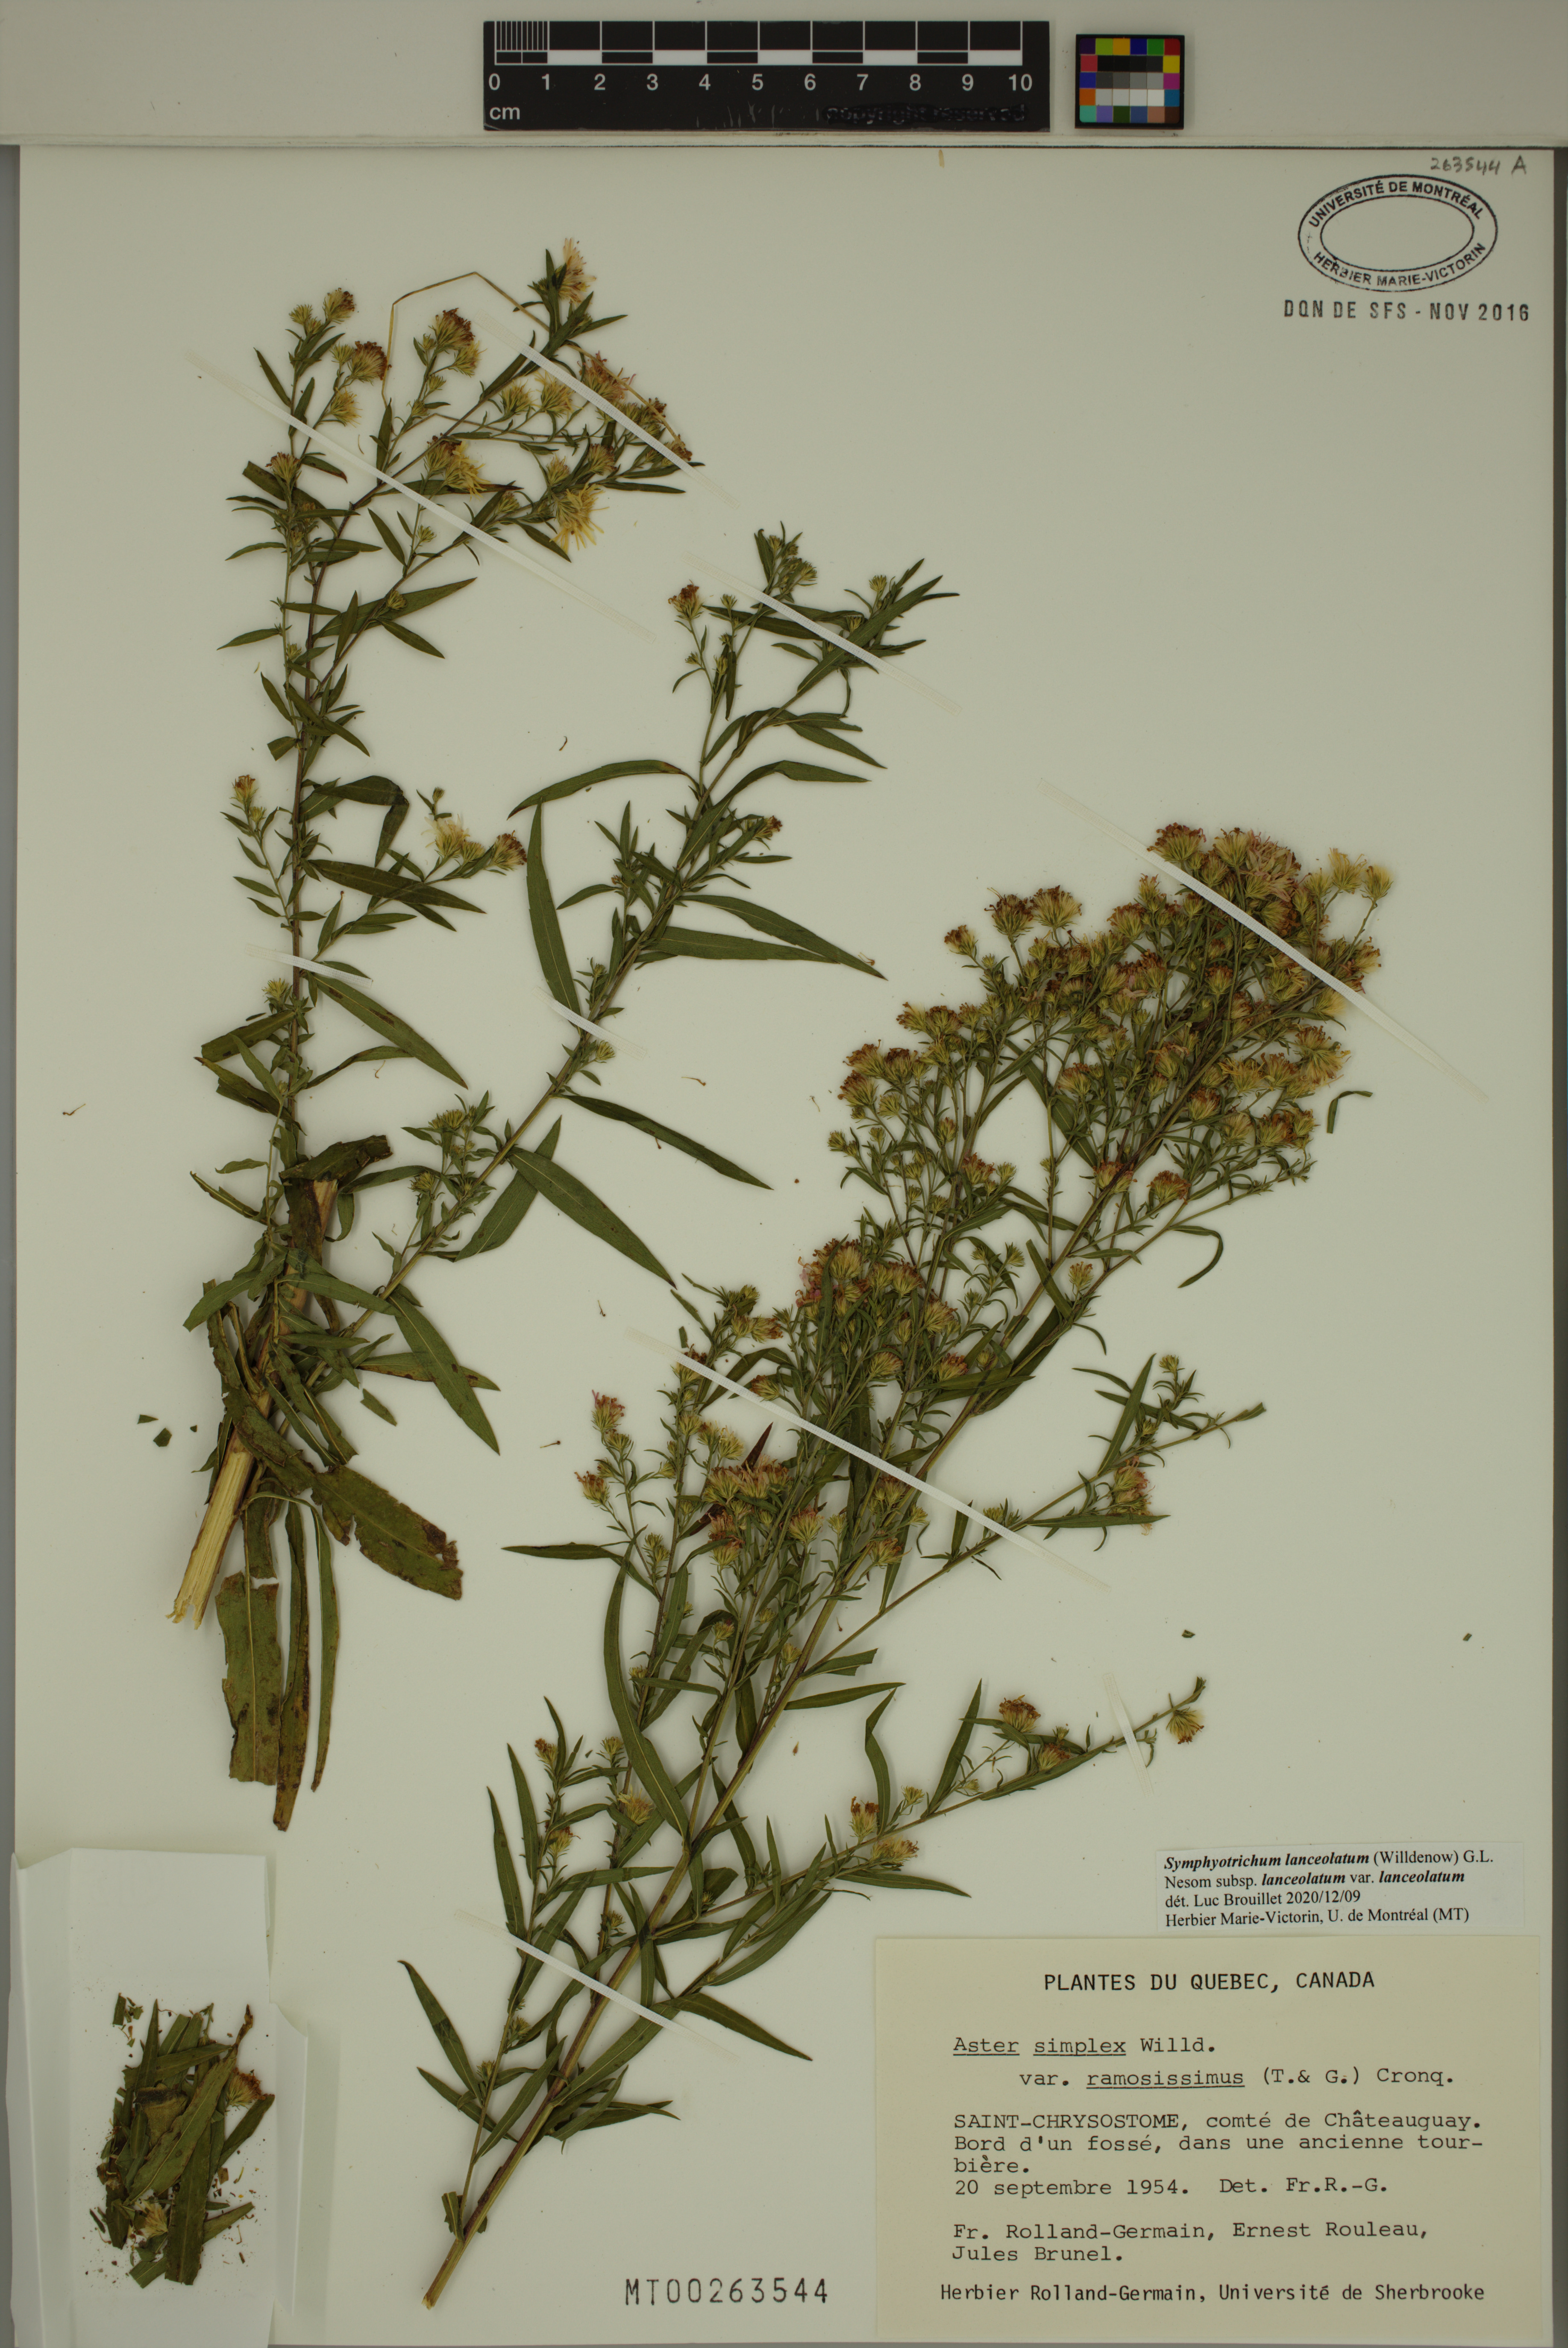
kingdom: Plantae
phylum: Tracheophyta
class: Magnoliopsida
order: Asterales
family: Asteraceae
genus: Symphyotrichum
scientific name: Symphyotrichum lanceolatum
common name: Panicled aster
